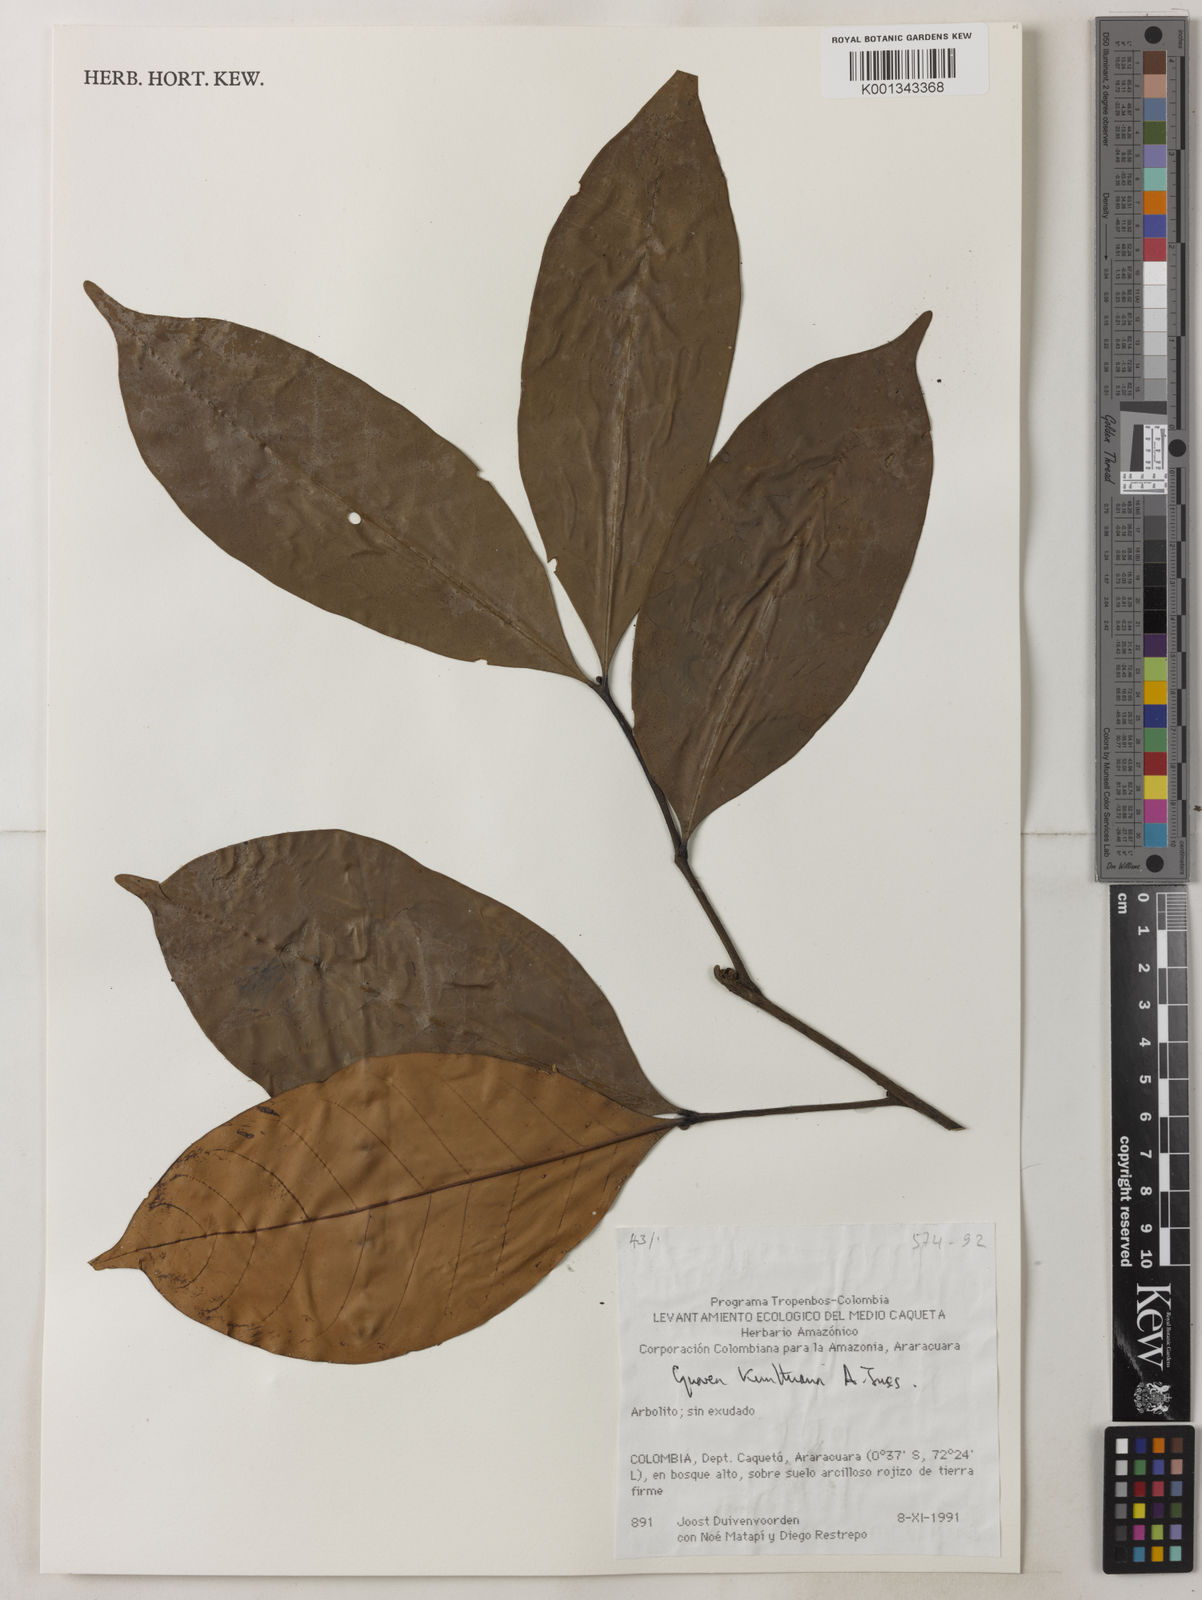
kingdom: Plantae
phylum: Tracheophyta
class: Magnoliopsida
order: Sapindales
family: Meliaceae
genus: Guarea
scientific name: Guarea kunthiana
